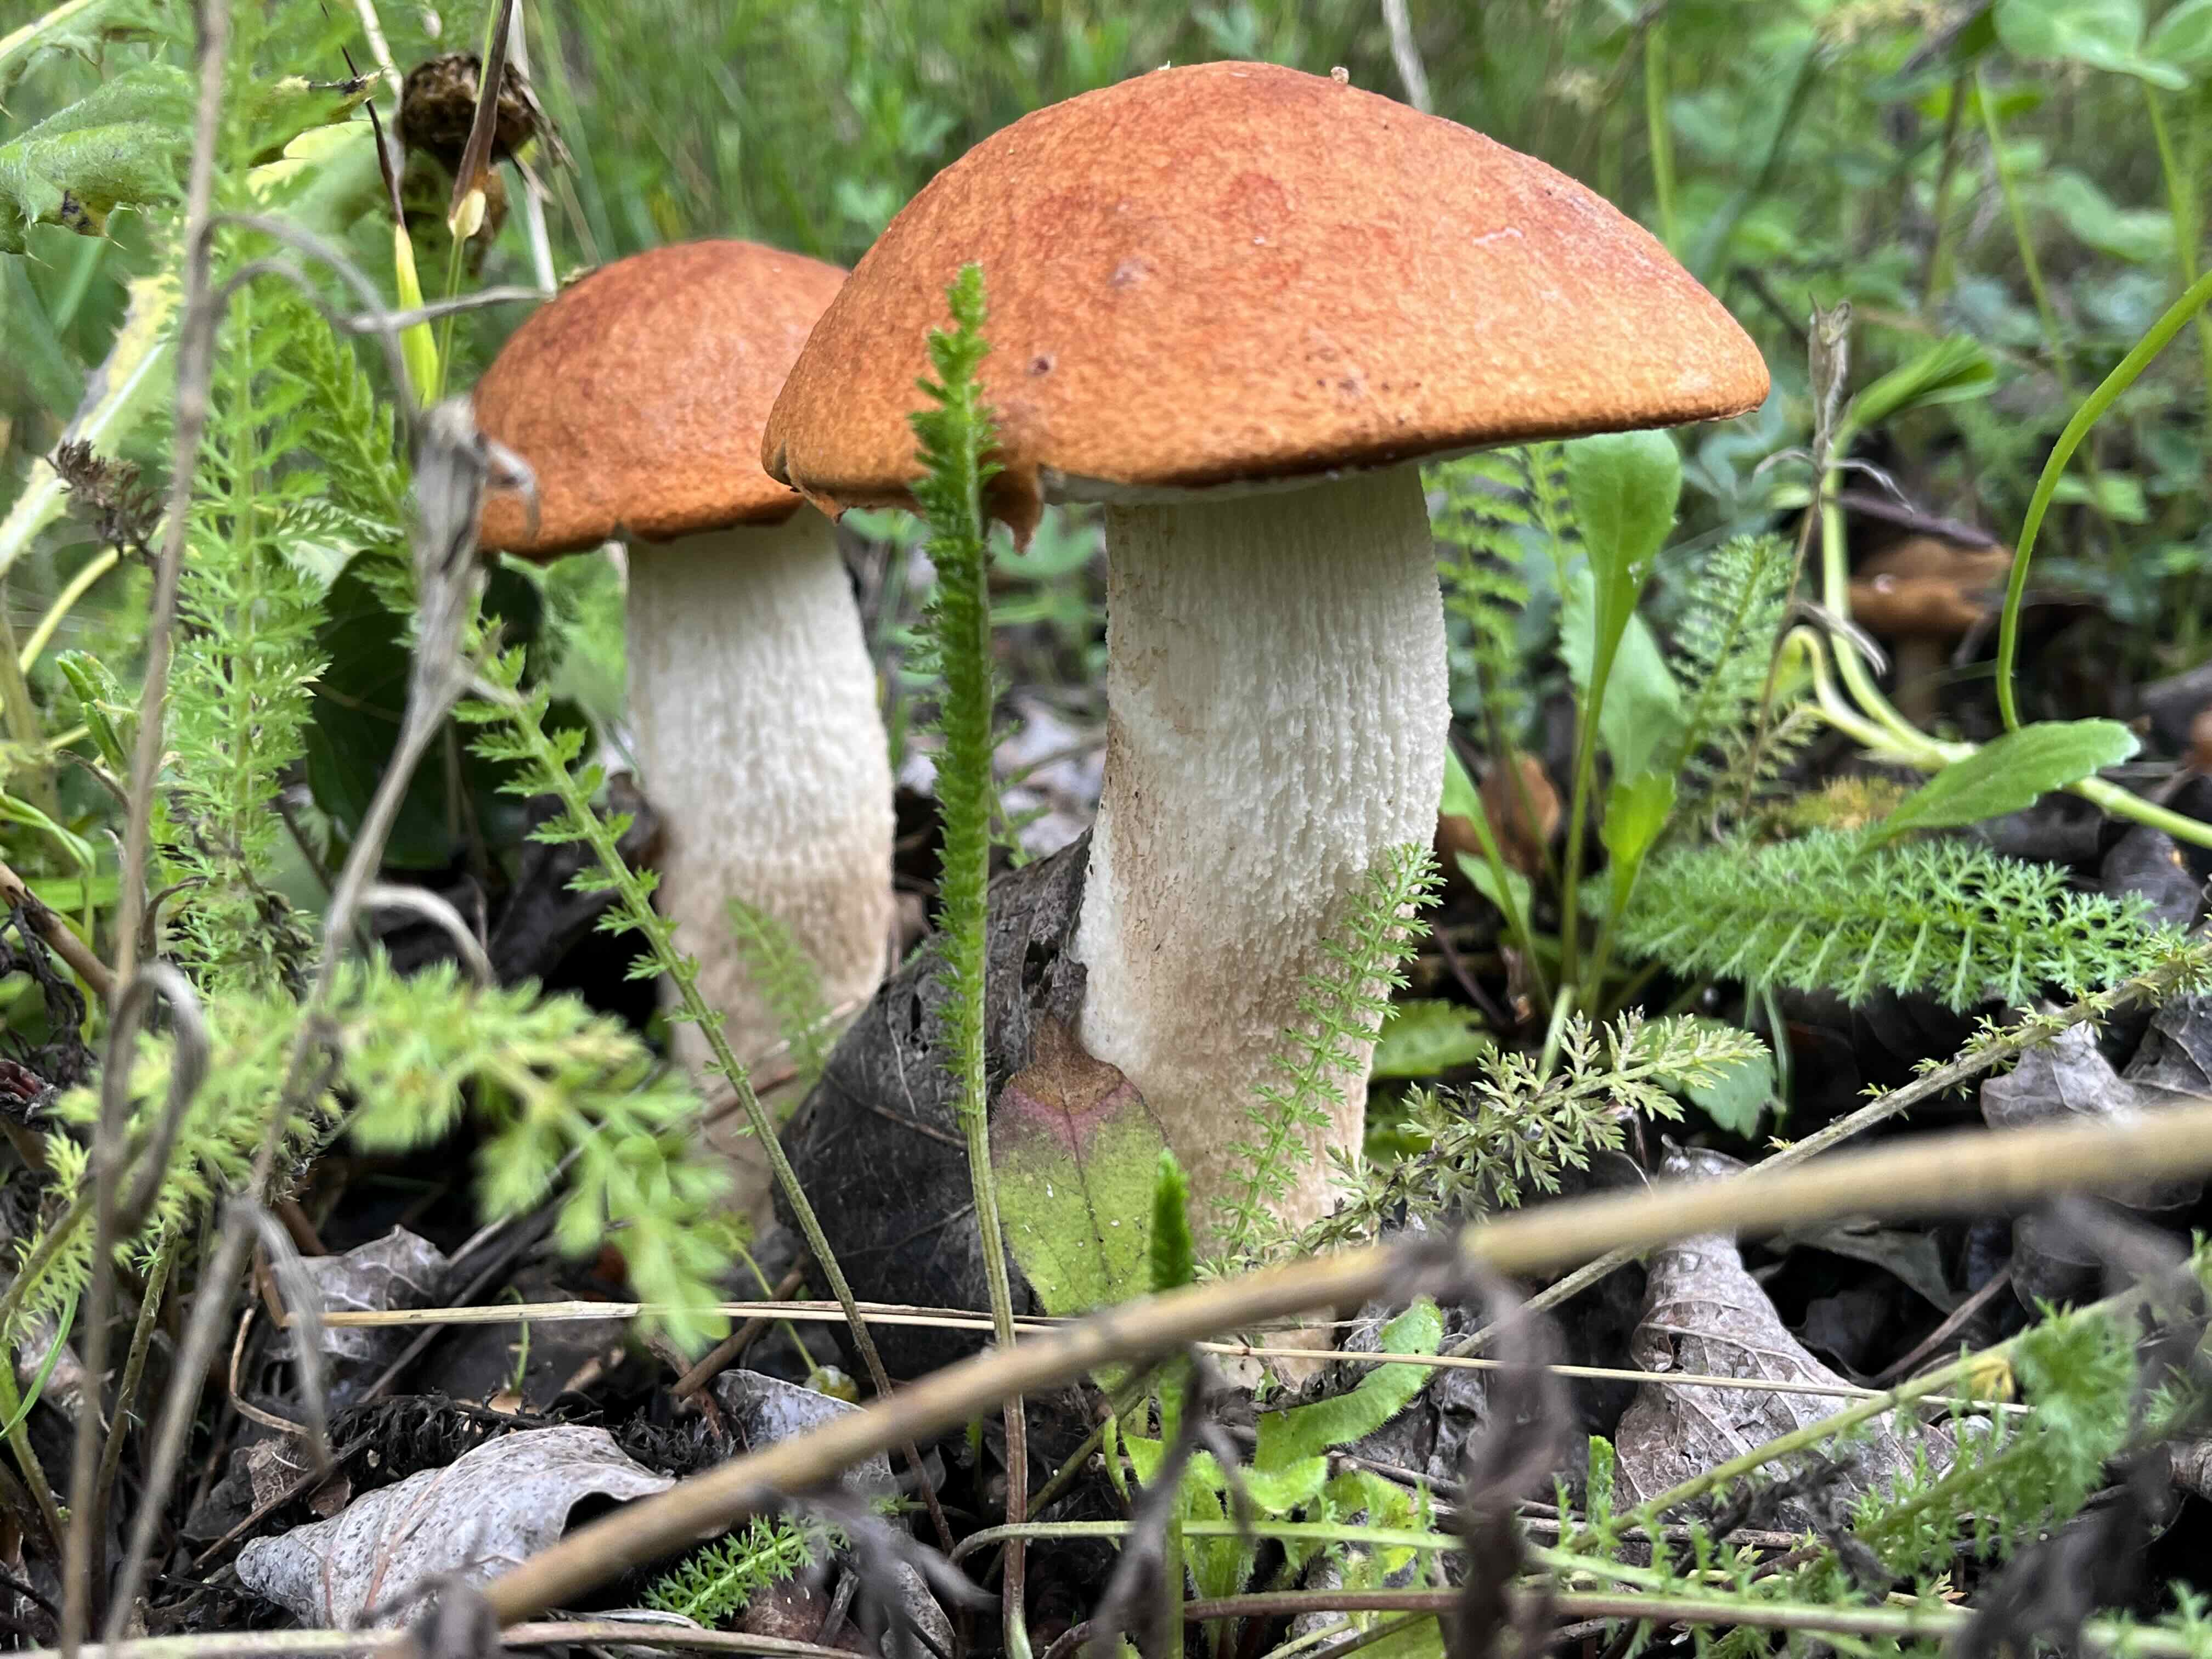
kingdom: Fungi
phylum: Basidiomycota
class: Agaricomycetes
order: Boletales
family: Boletaceae
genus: Leccinum
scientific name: Leccinum albostipitatum
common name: aspe-skælrørhat
